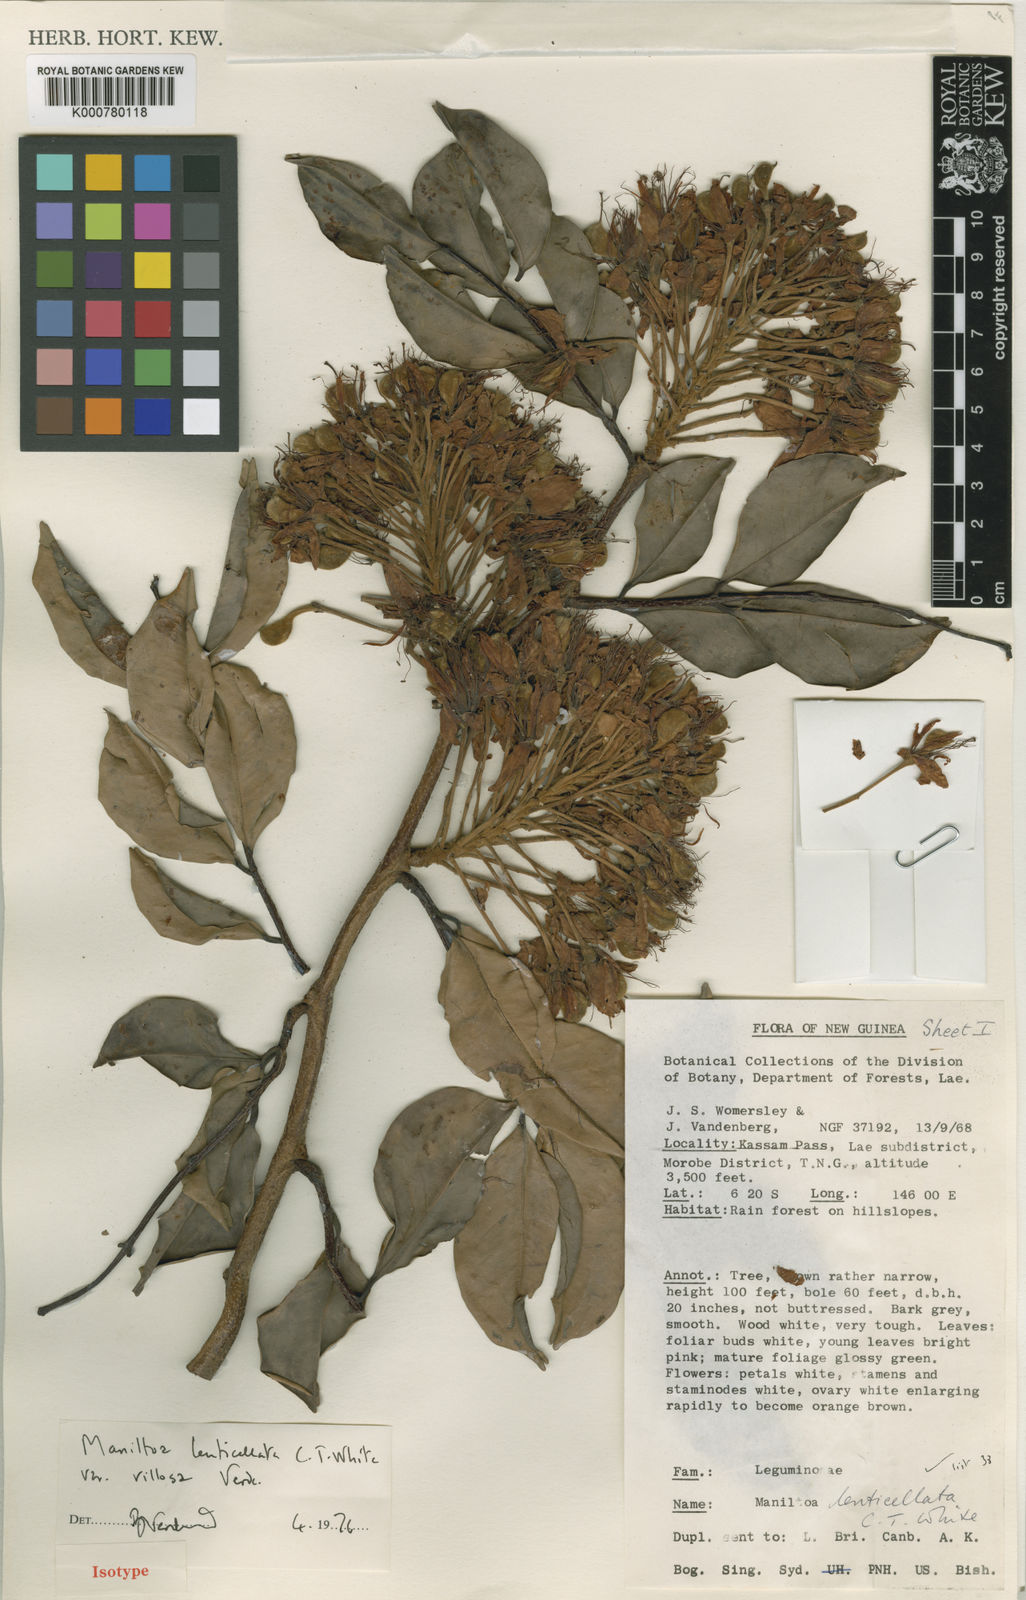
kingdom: Plantae
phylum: Tracheophyta
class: Magnoliopsida
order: Fabales
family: Fabaceae
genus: Cynometra
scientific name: Cynometra lenticellata
